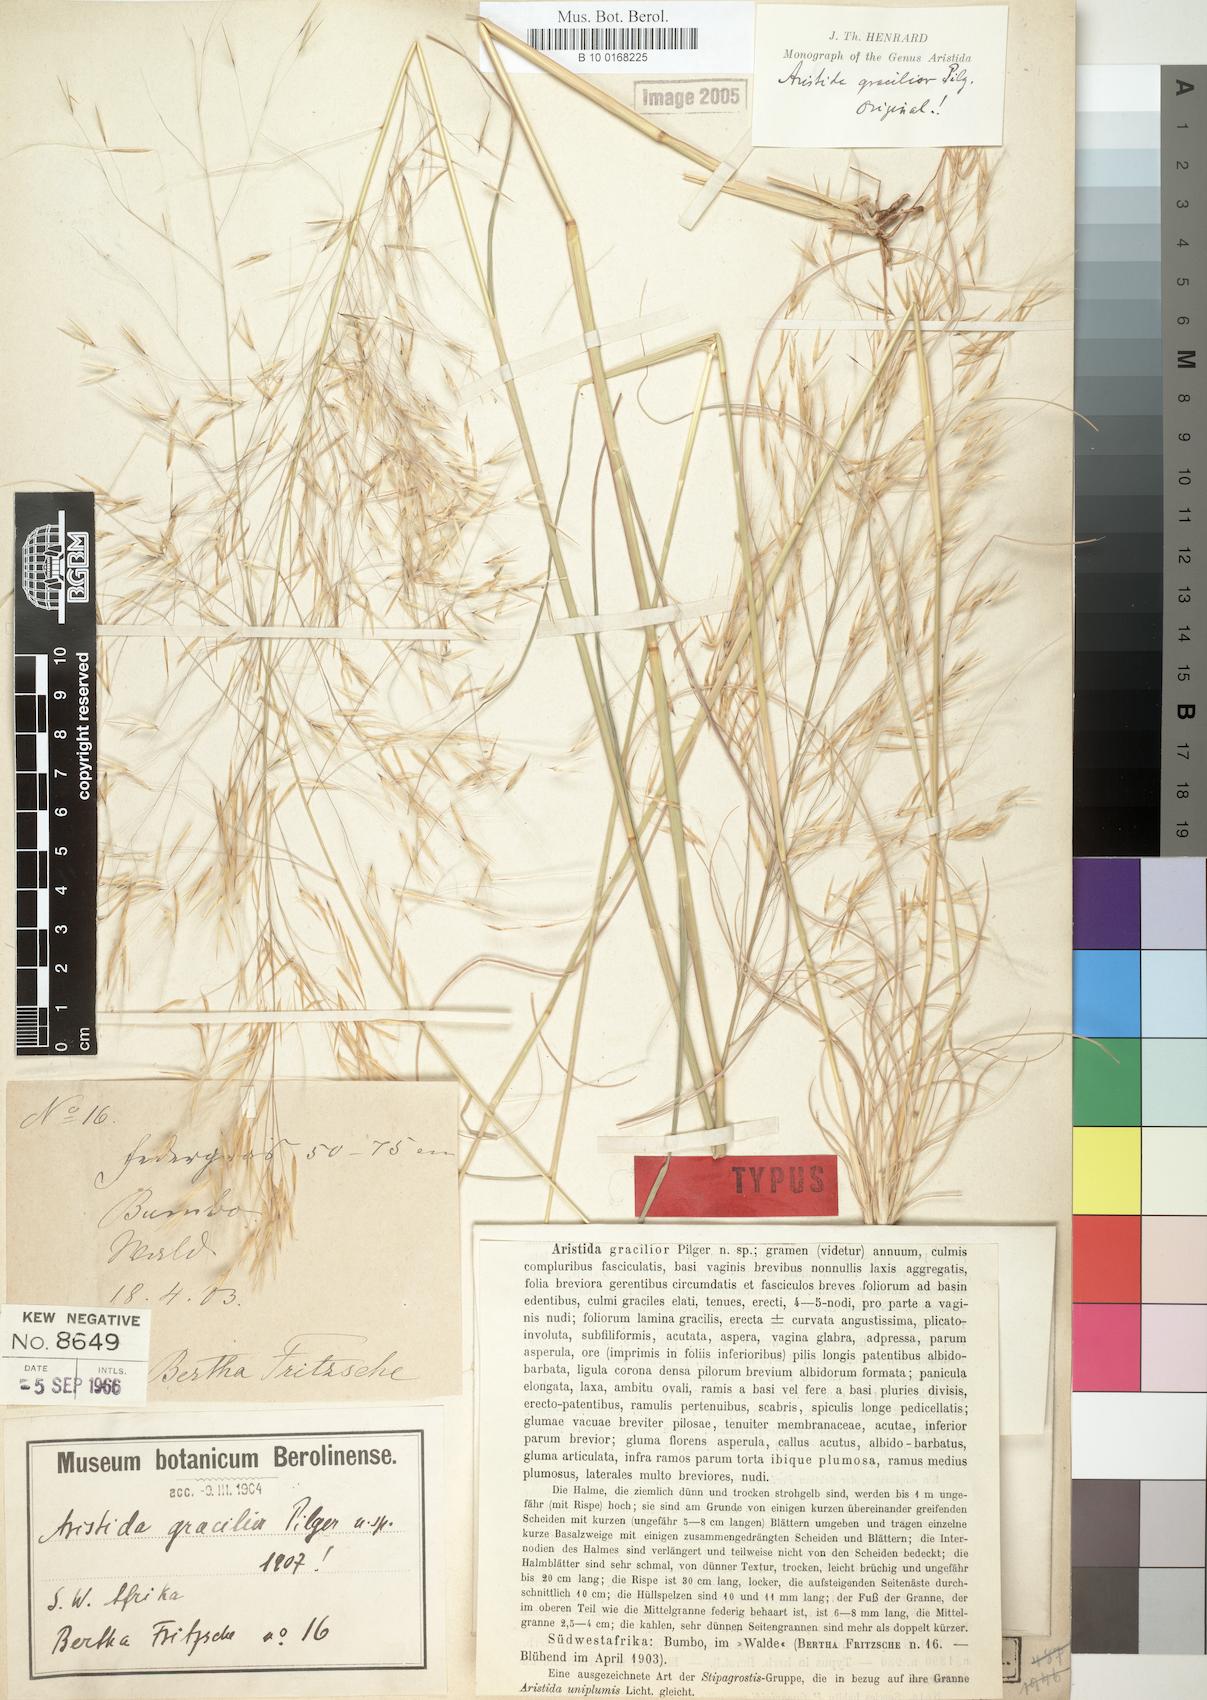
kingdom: Plantae
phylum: Tracheophyta
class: Liliopsida
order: Poales
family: Poaceae
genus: Stipagrostis
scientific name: Stipagrostis hirtigluma
